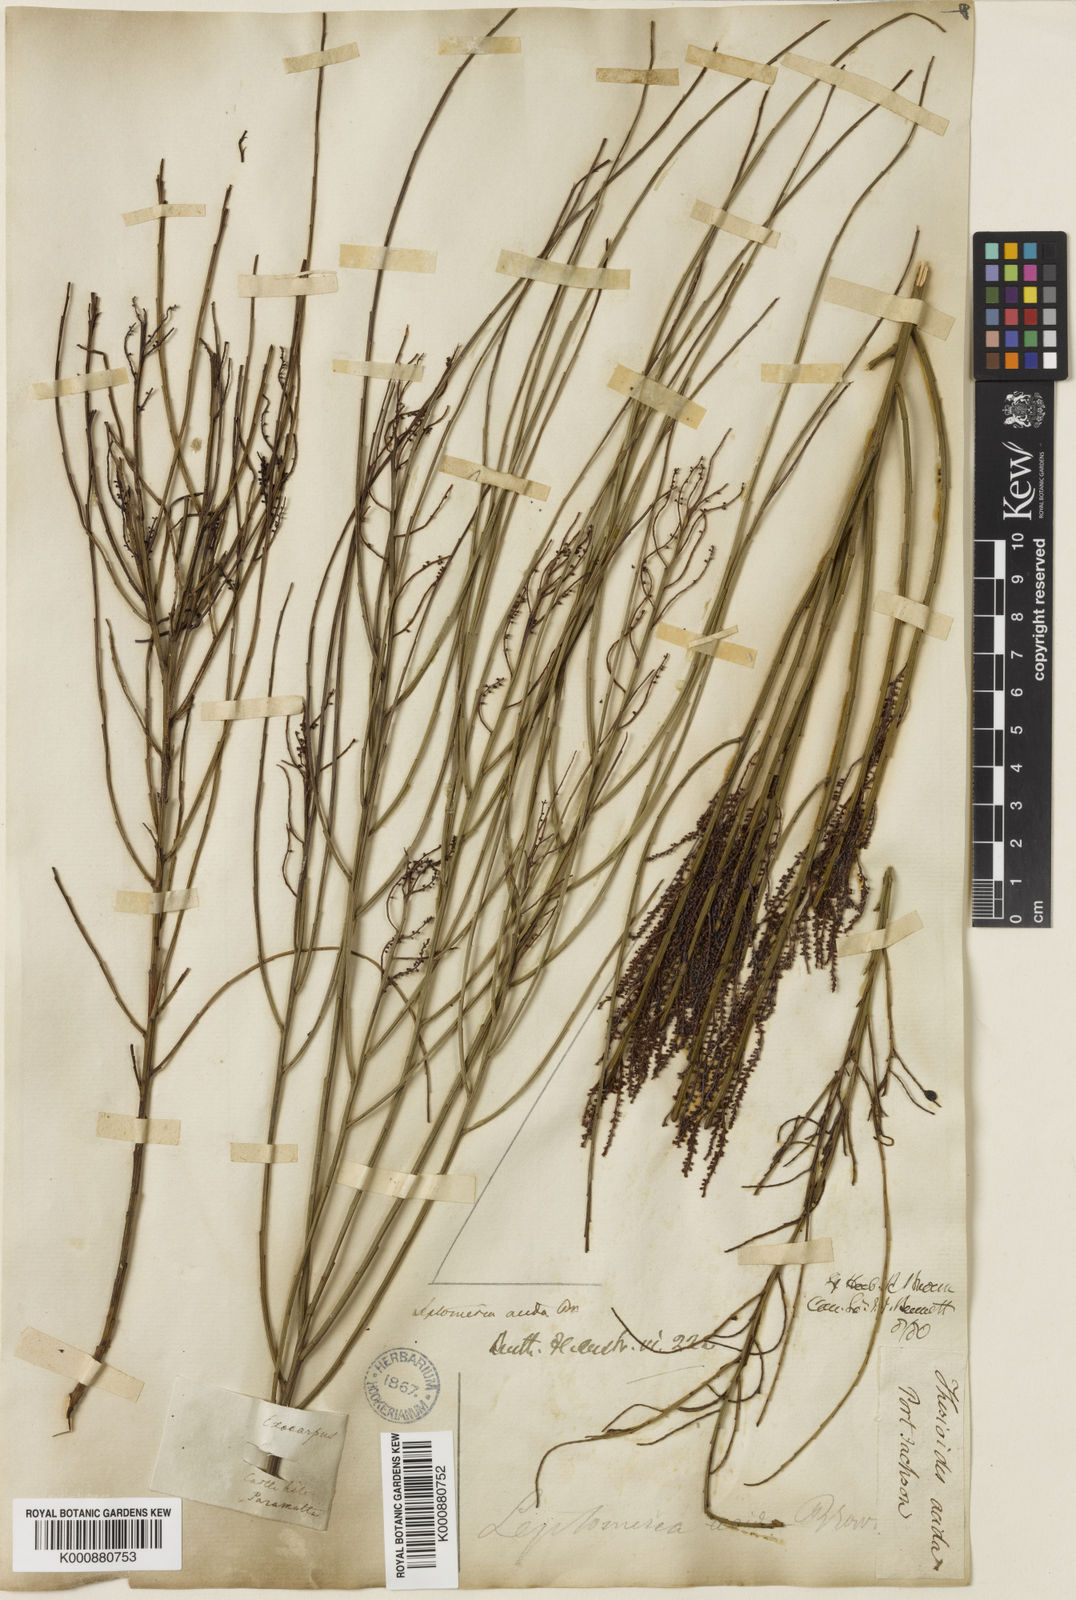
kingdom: Plantae
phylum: Tracheophyta
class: Magnoliopsida
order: Santalales
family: Amphorogynaceae
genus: Leptomeria
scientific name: Leptomeria acida
